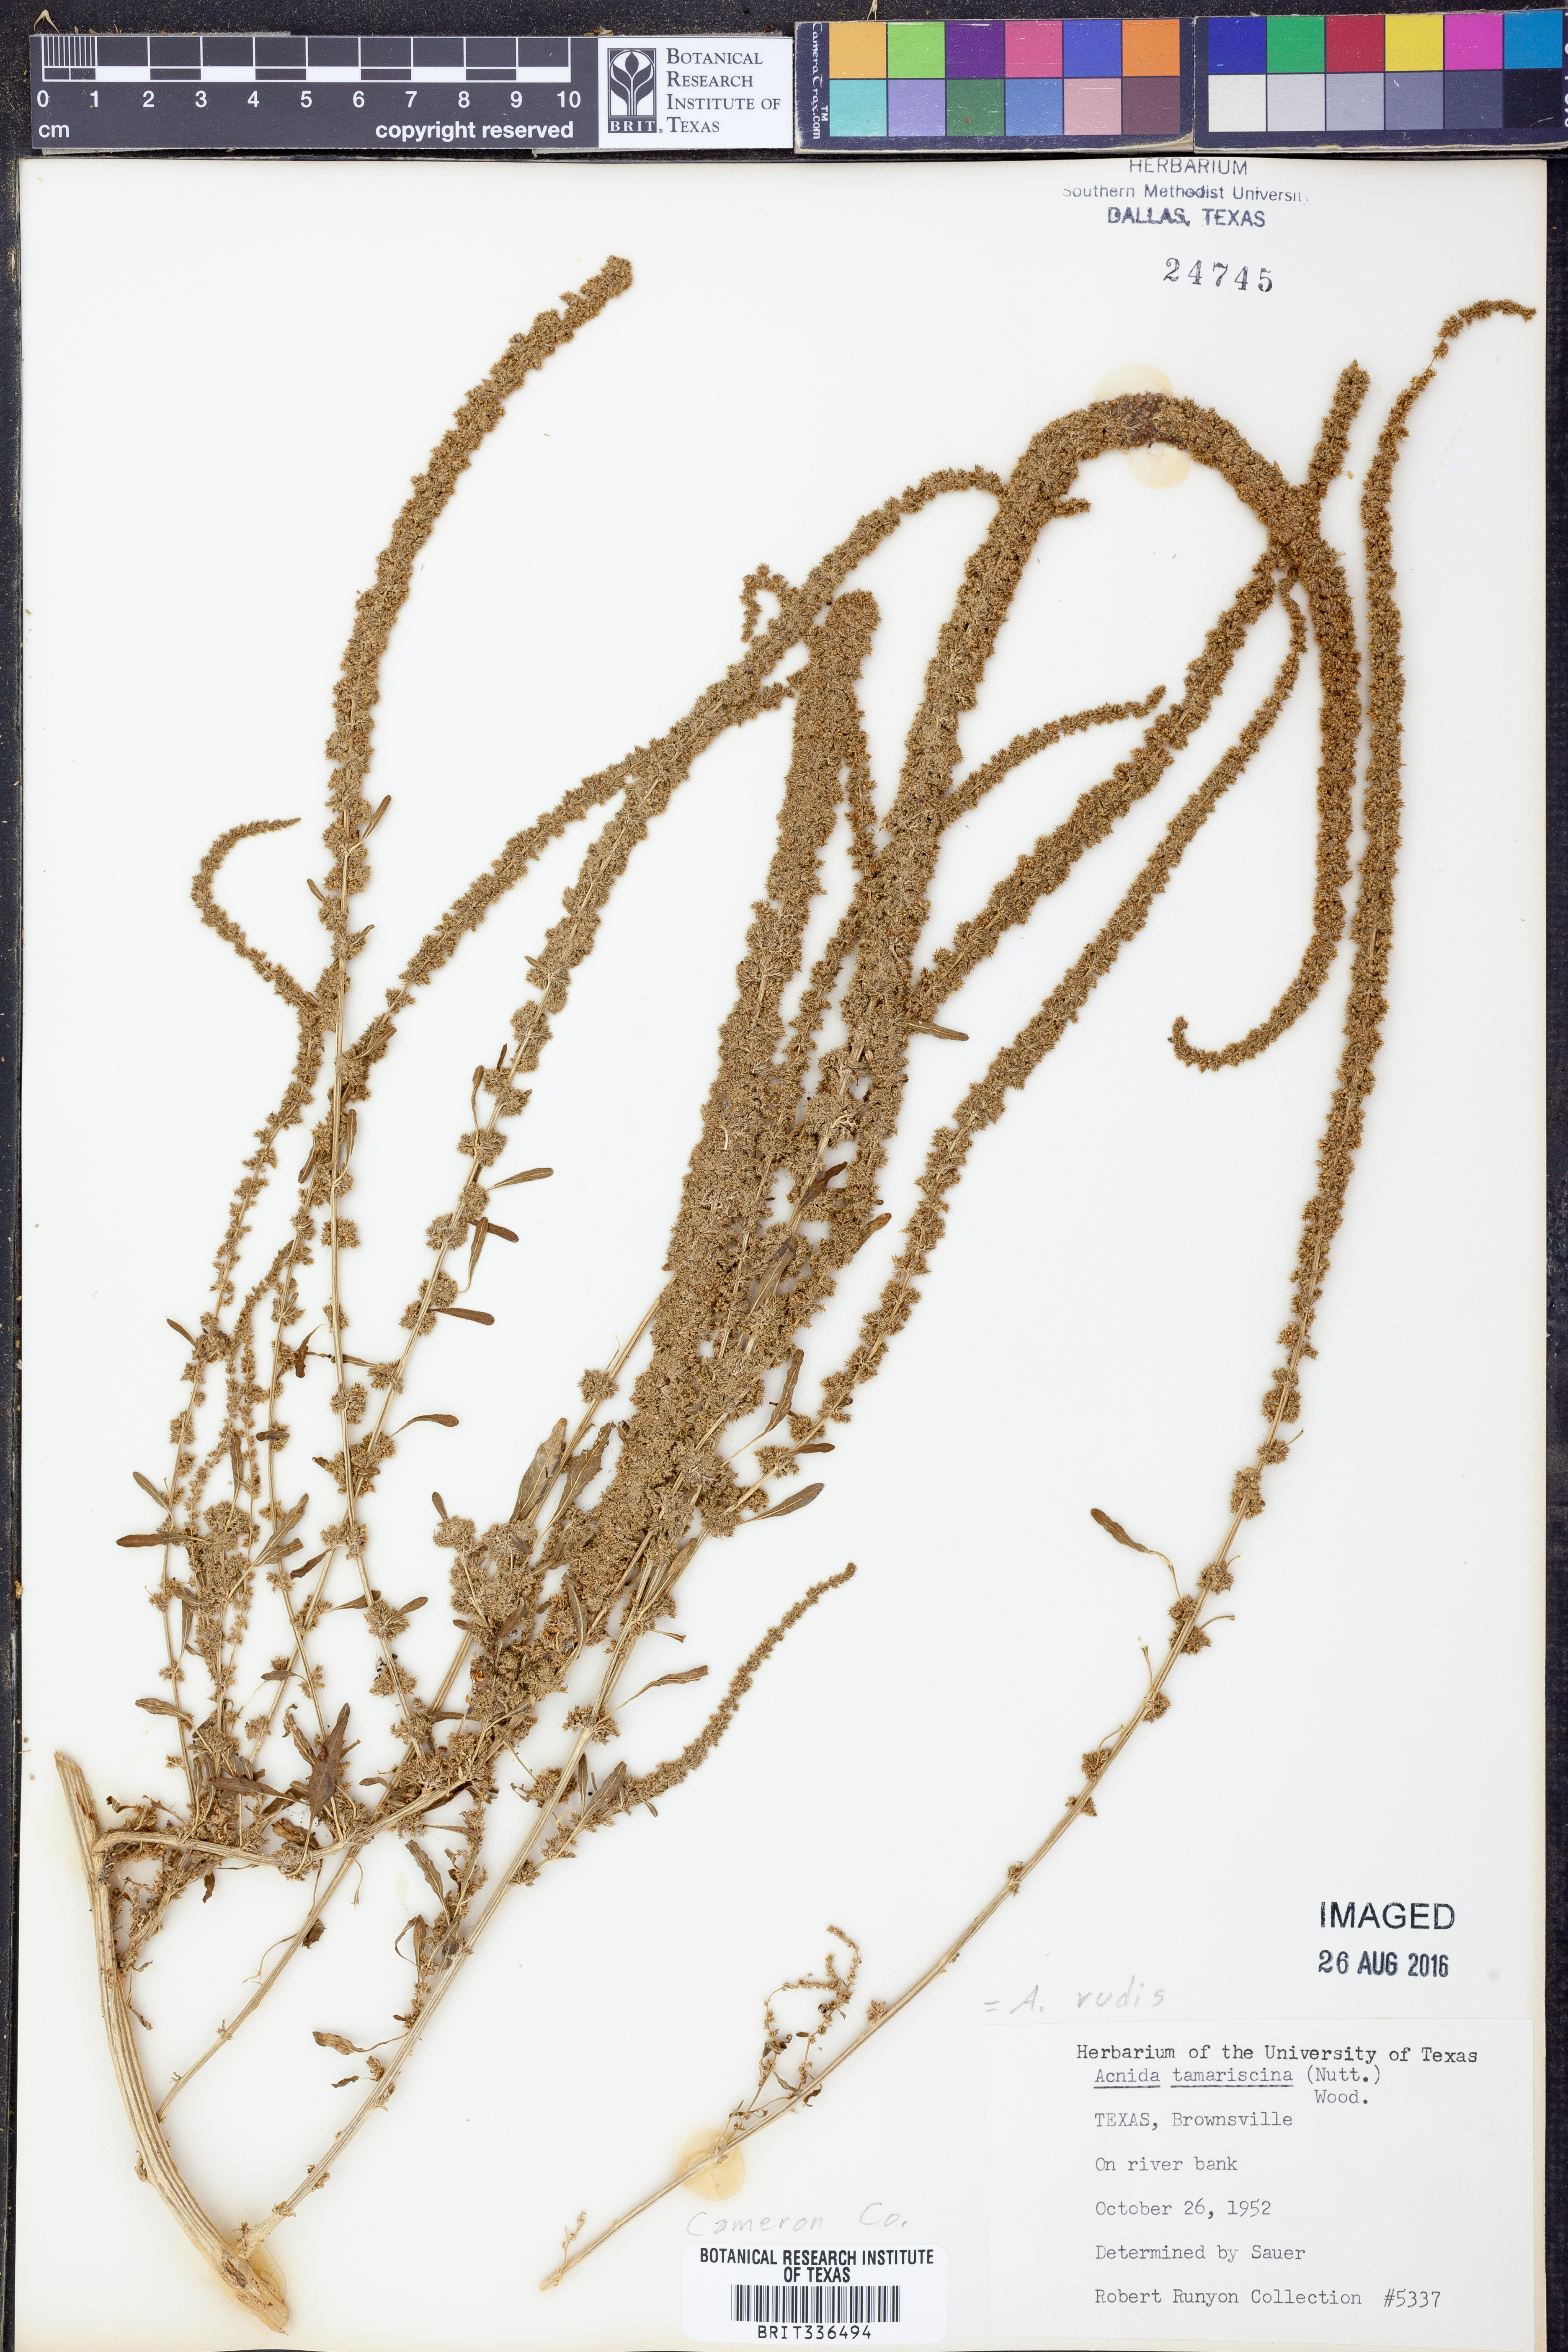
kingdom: Plantae
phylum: Tracheophyta
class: Magnoliopsida
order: Caryophyllales
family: Amaranthaceae
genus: Amaranthus
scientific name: Amaranthus tuberculatus
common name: Rough-fruit amaranth
